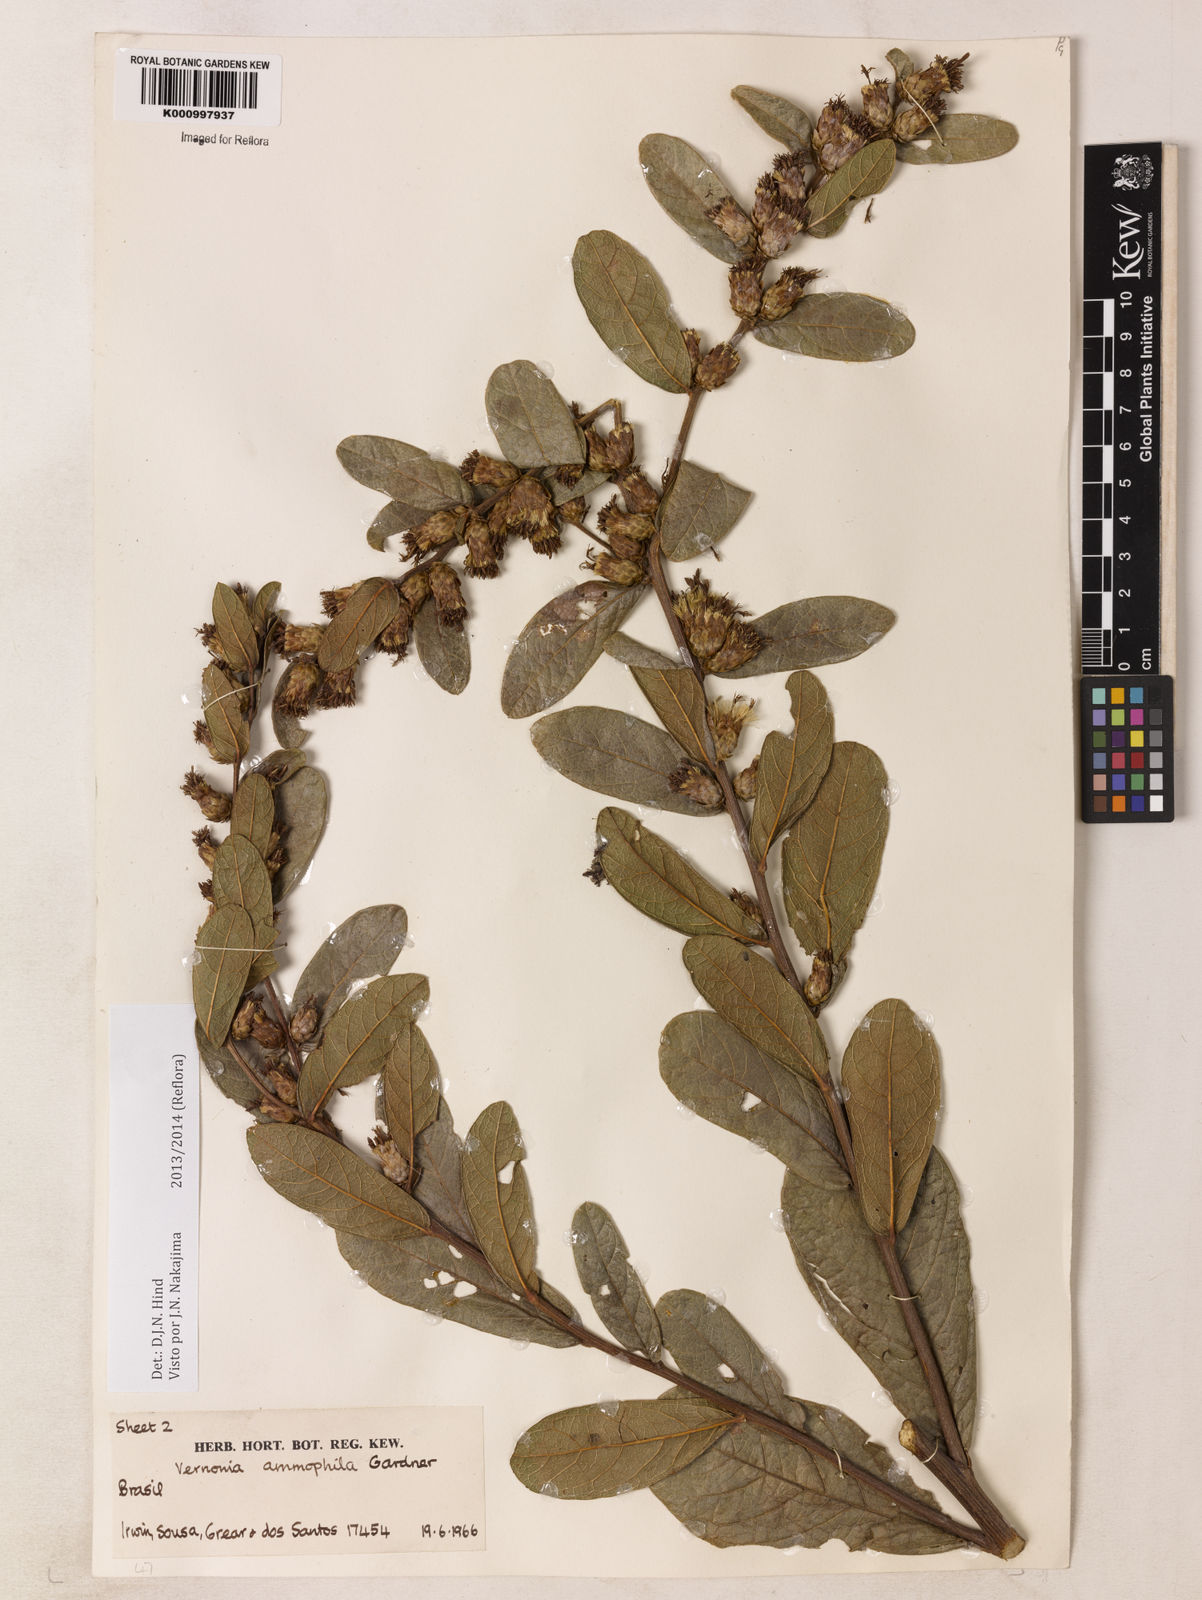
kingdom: Plantae
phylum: Tracheophyta
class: Magnoliopsida
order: Asterales
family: Asteraceae
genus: Lessingianthus
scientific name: Lessingianthus ammophilus
